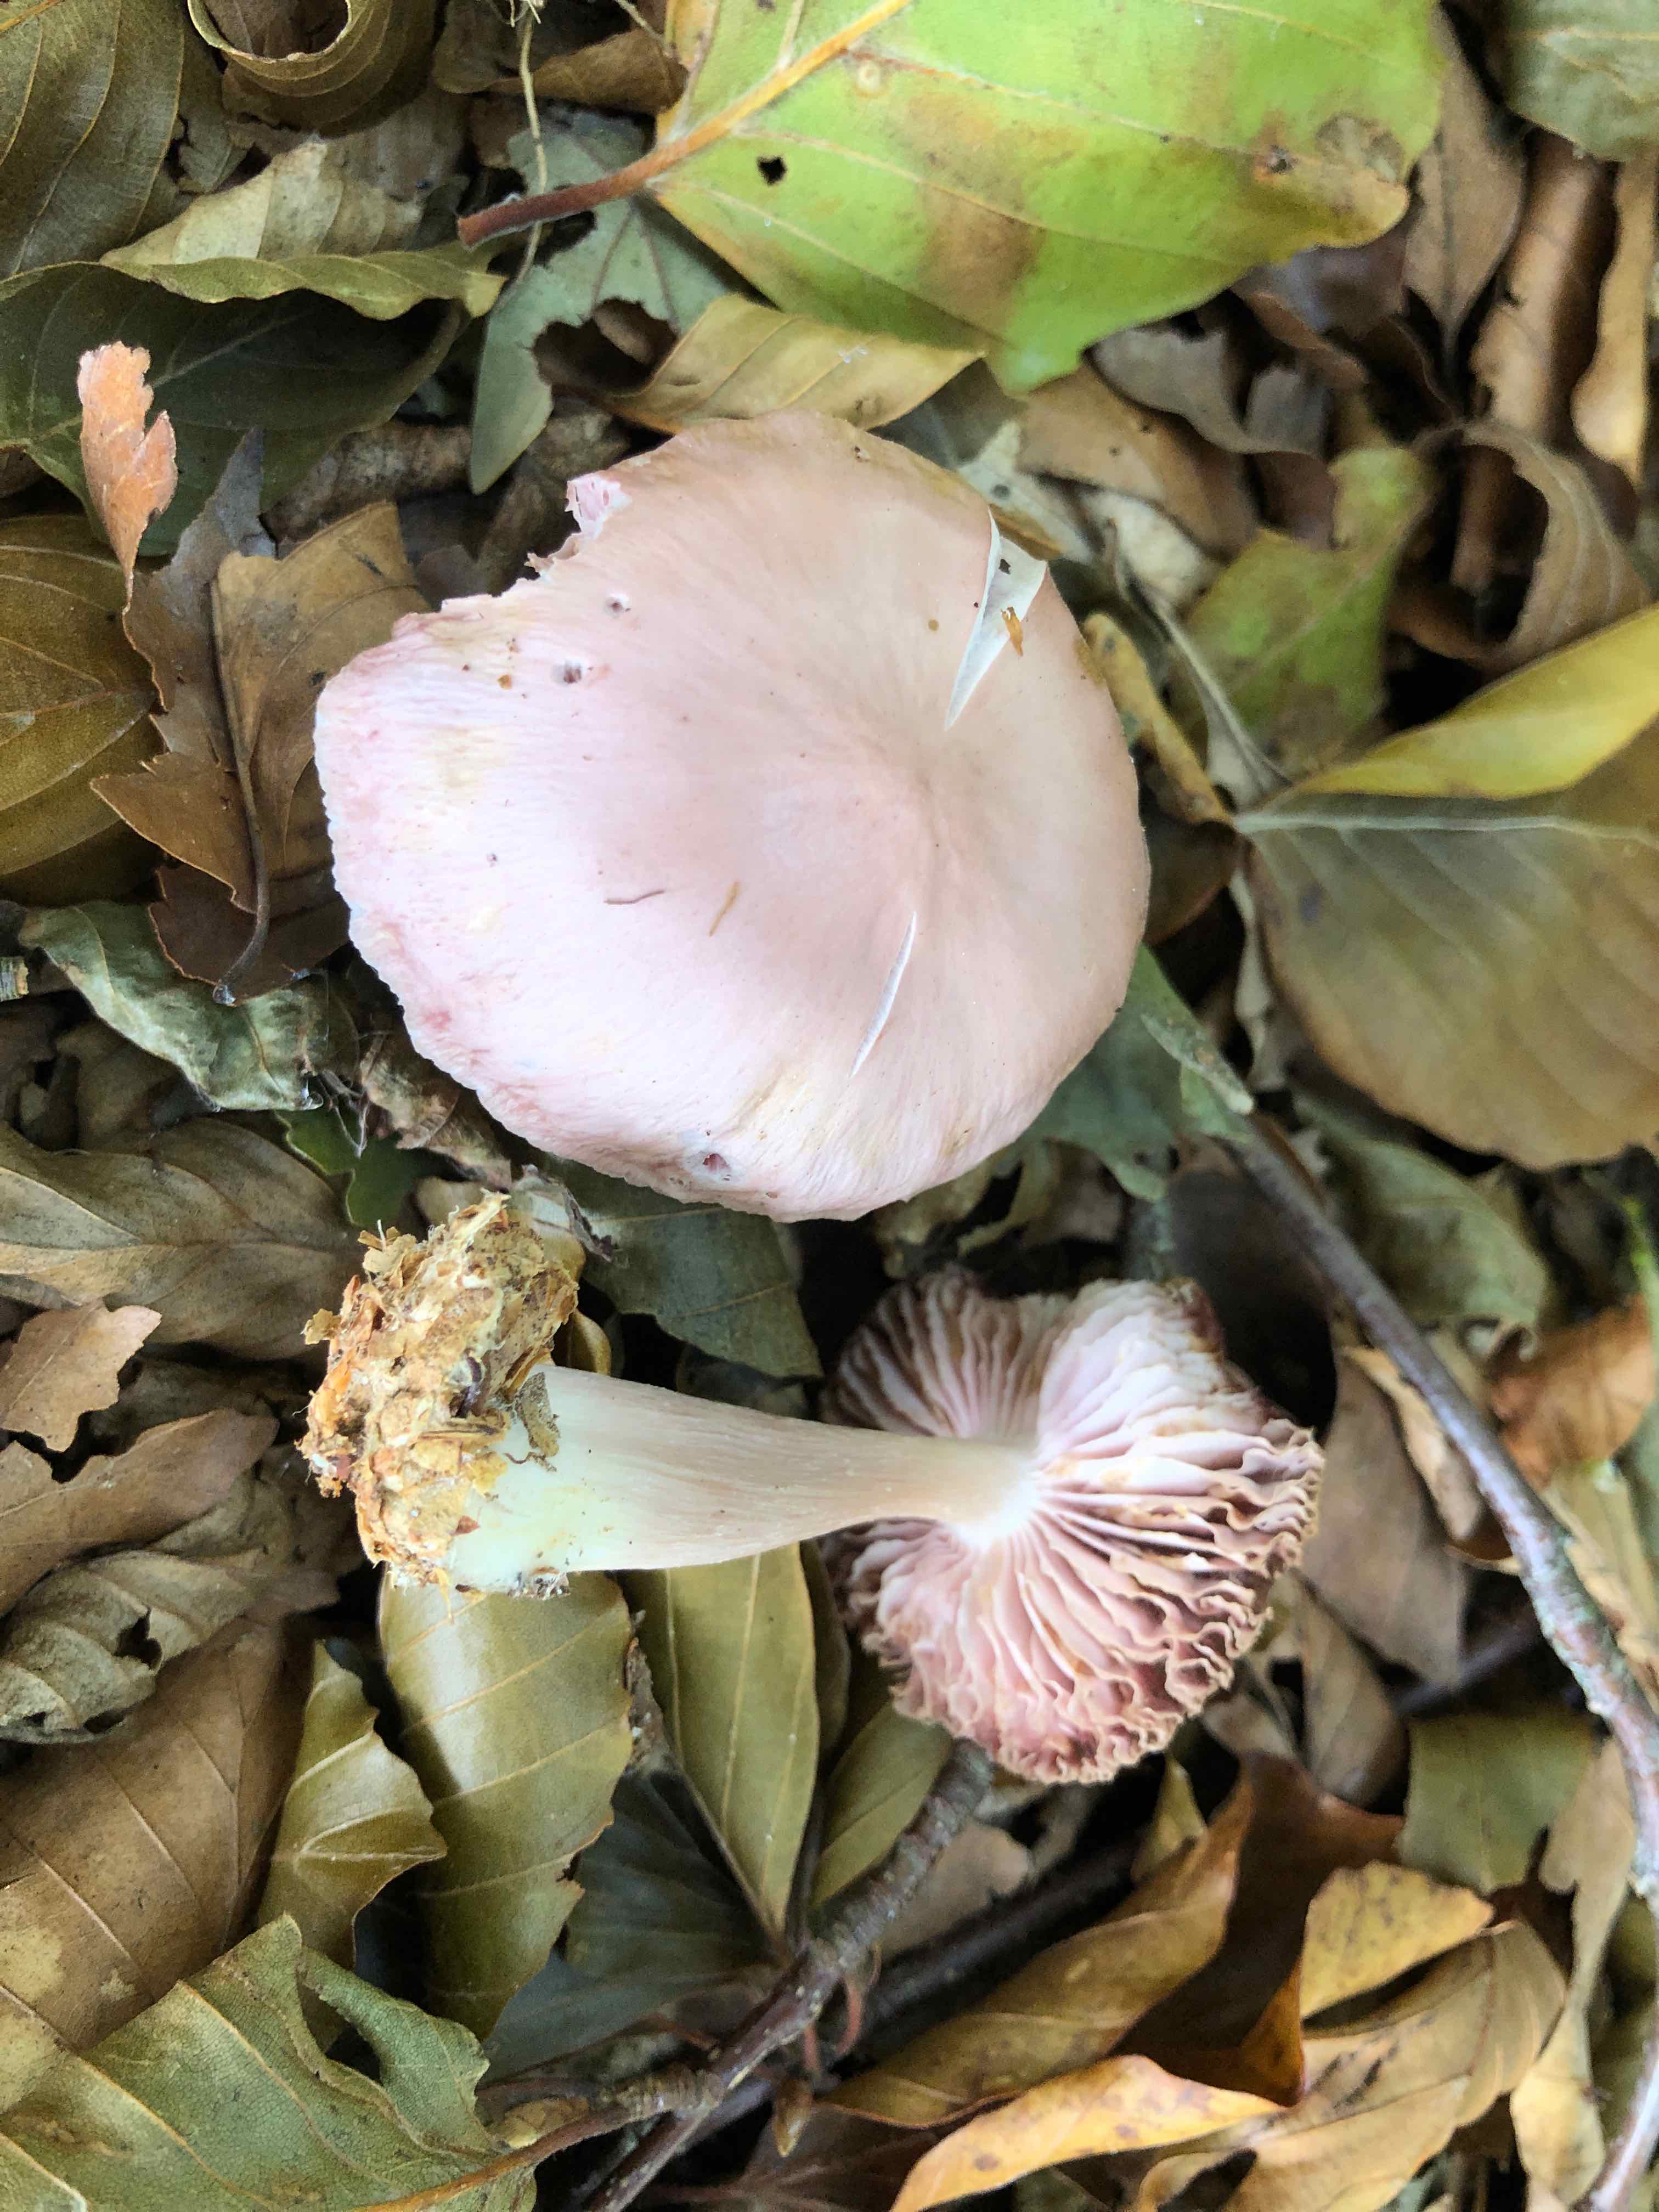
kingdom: Fungi
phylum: Basidiomycota
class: Agaricomycetes
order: Agaricales
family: Mycenaceae
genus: Mycena
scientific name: Mycena rosea
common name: rosa huesvamp
